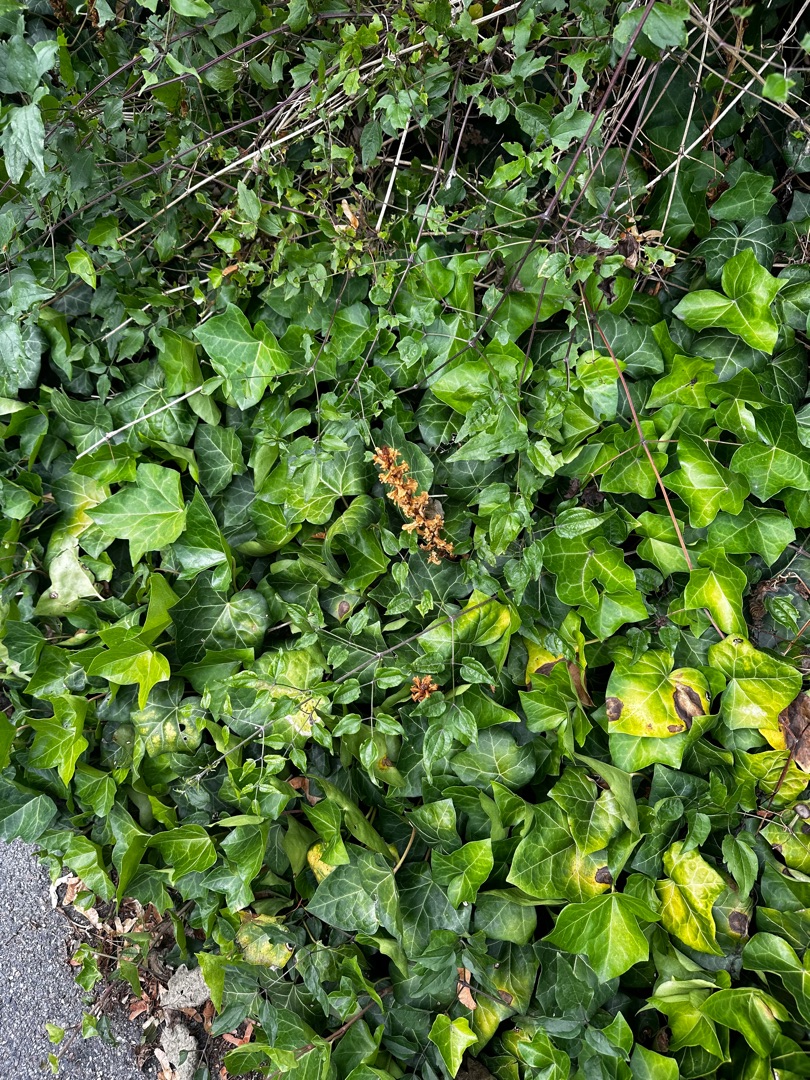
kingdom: Plantae
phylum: Tracheophyta
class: Magnoliopsida
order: Lamiales
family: Orobanchaceae
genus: Orobanche
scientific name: Orobanche hederae
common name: Vedbend-gyvelkvæler
